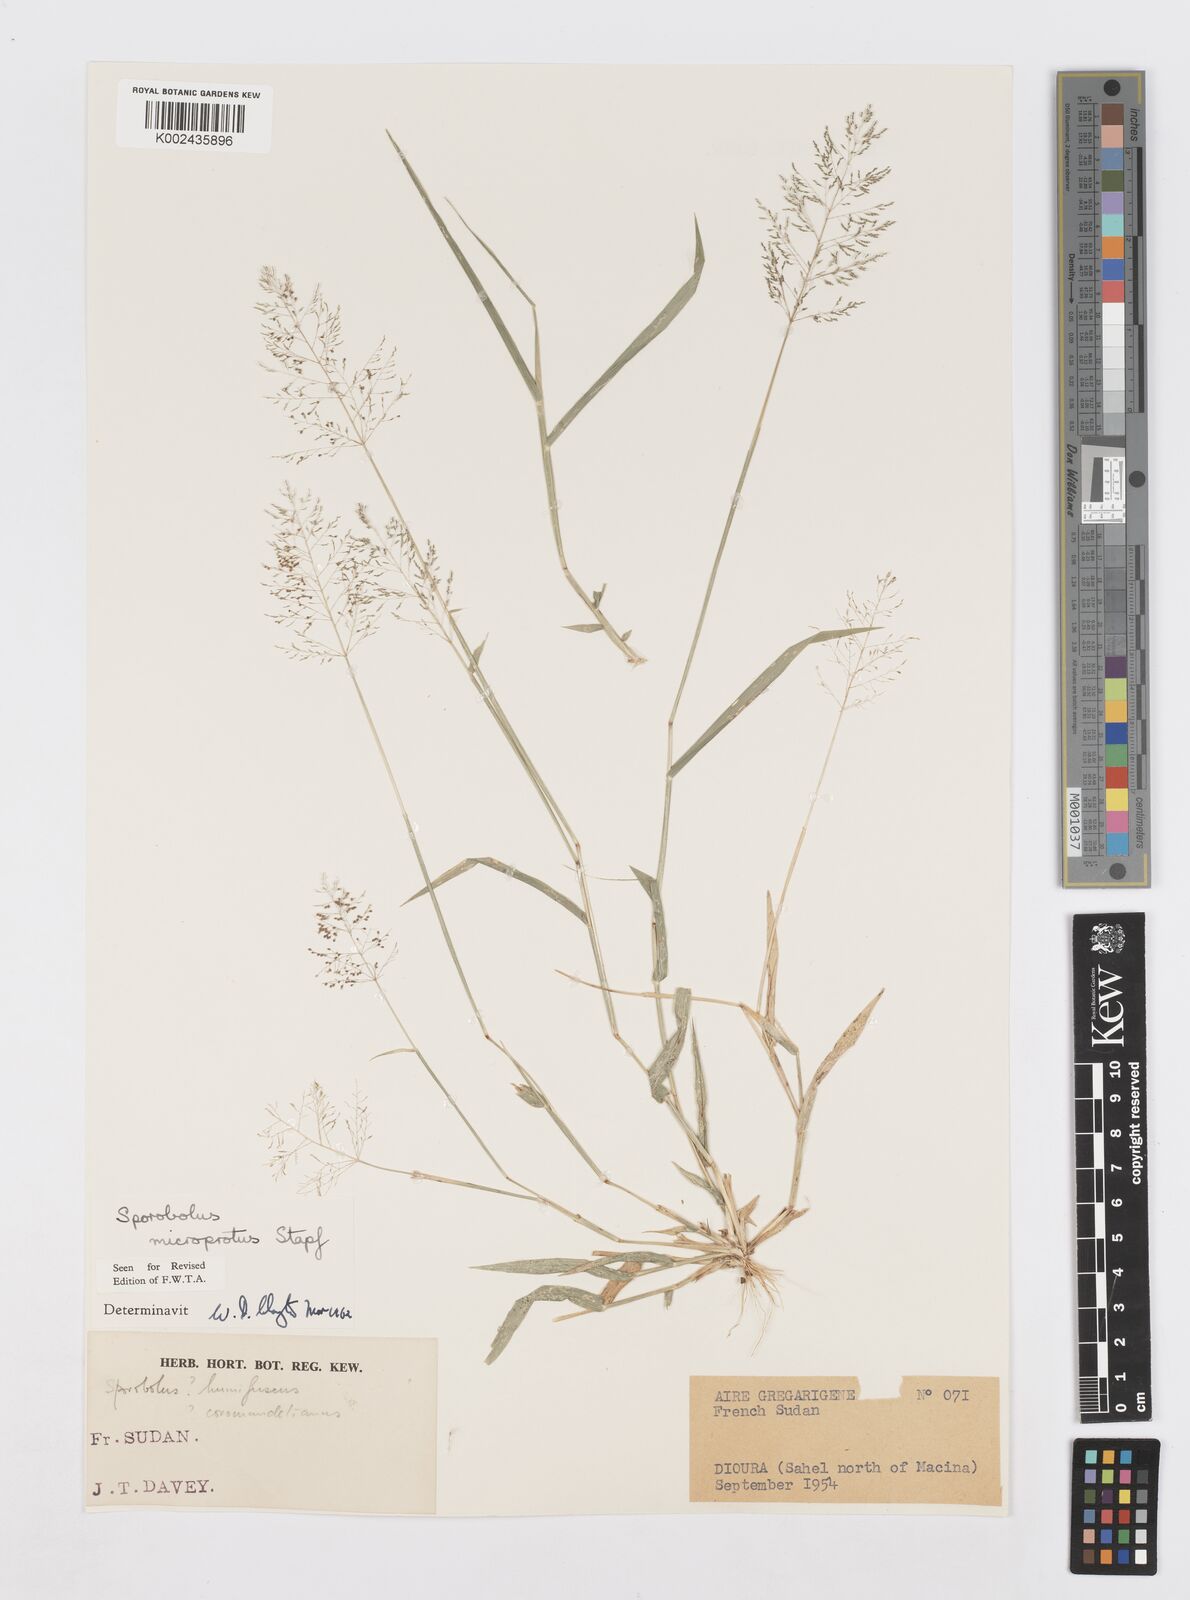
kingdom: Plantae
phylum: Tracheophyta
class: Liliopsida
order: Poales
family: Poaceae
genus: Sporobolus
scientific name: Sporobolus microprotus
